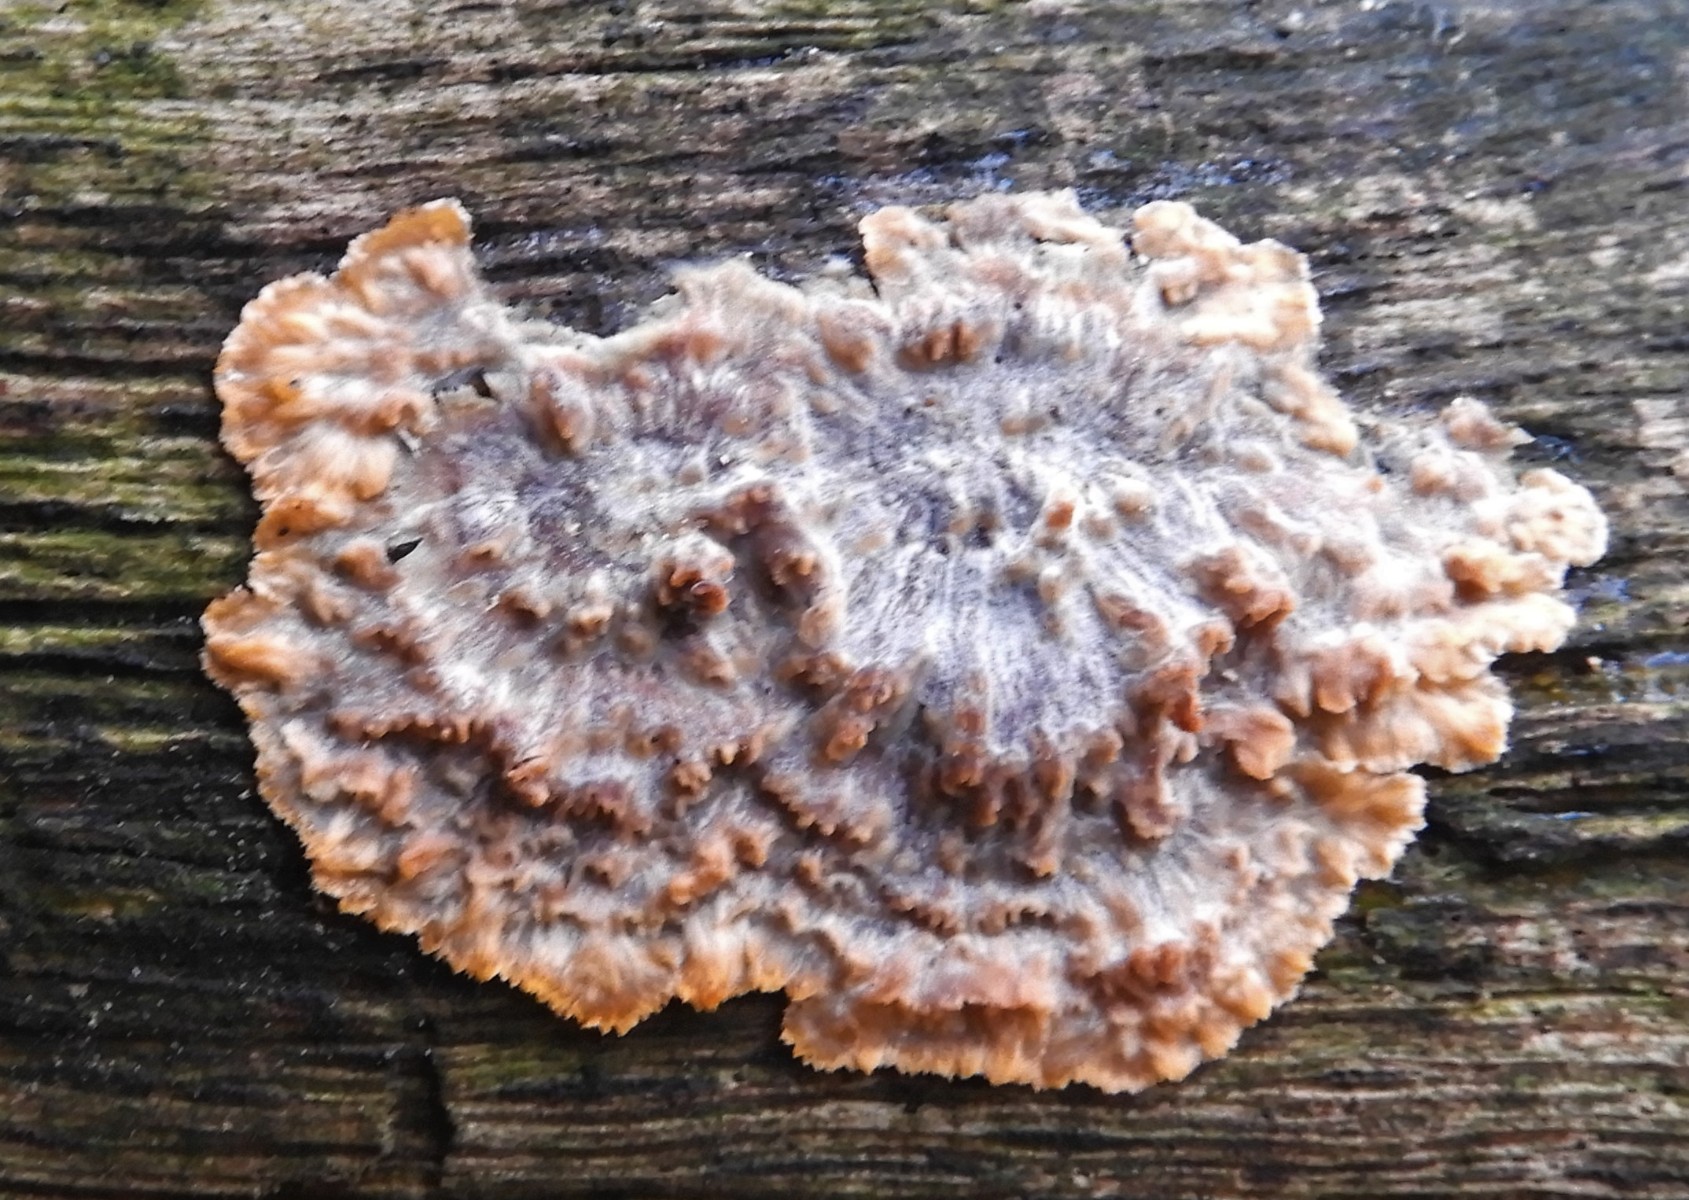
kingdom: Fungi
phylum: Basidiomycota
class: Agaricomycetes
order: Polyporales
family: Meruliaceae
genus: Phlebia
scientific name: Phlebia radiata
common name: stråle-åresvamp
